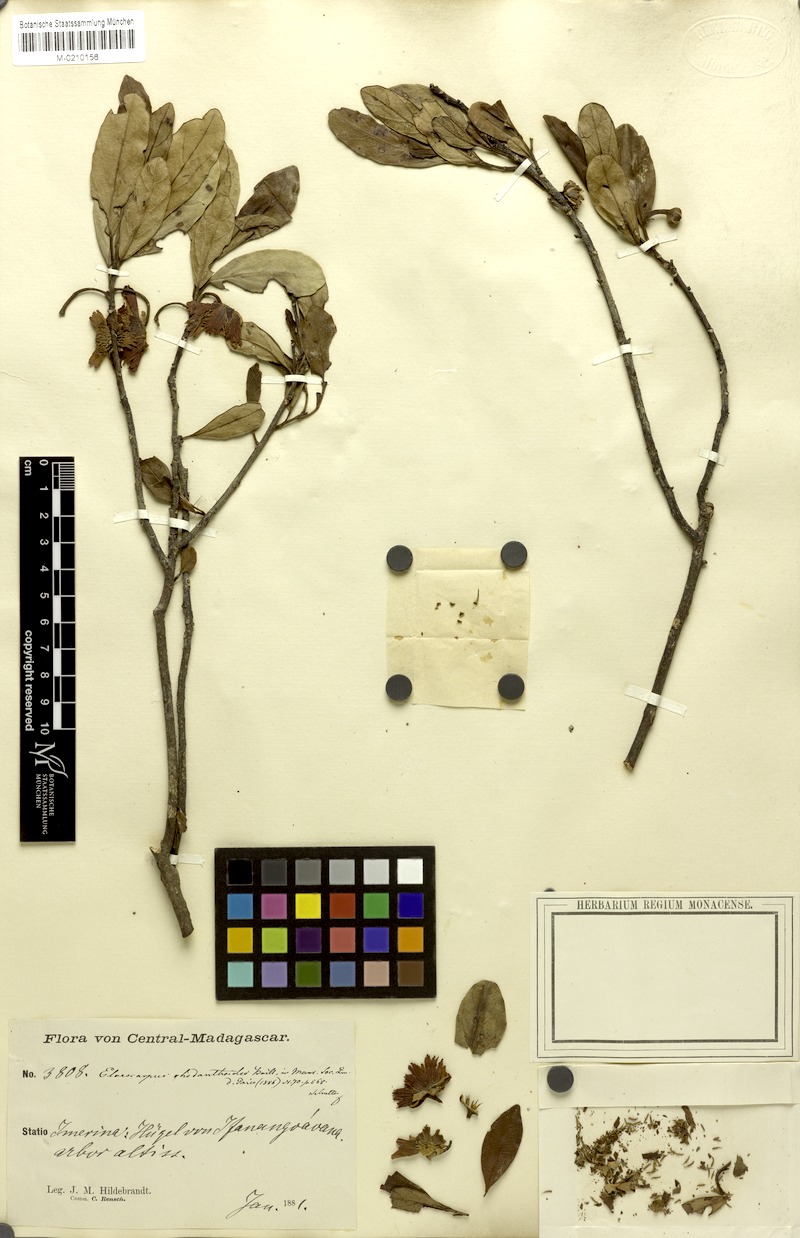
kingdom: Plantae
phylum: Tracheophyta
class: Magnoliopsida
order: Oxalidales
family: Elaeocarpaceae
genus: Sloanea
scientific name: Sloanea rhodantha
